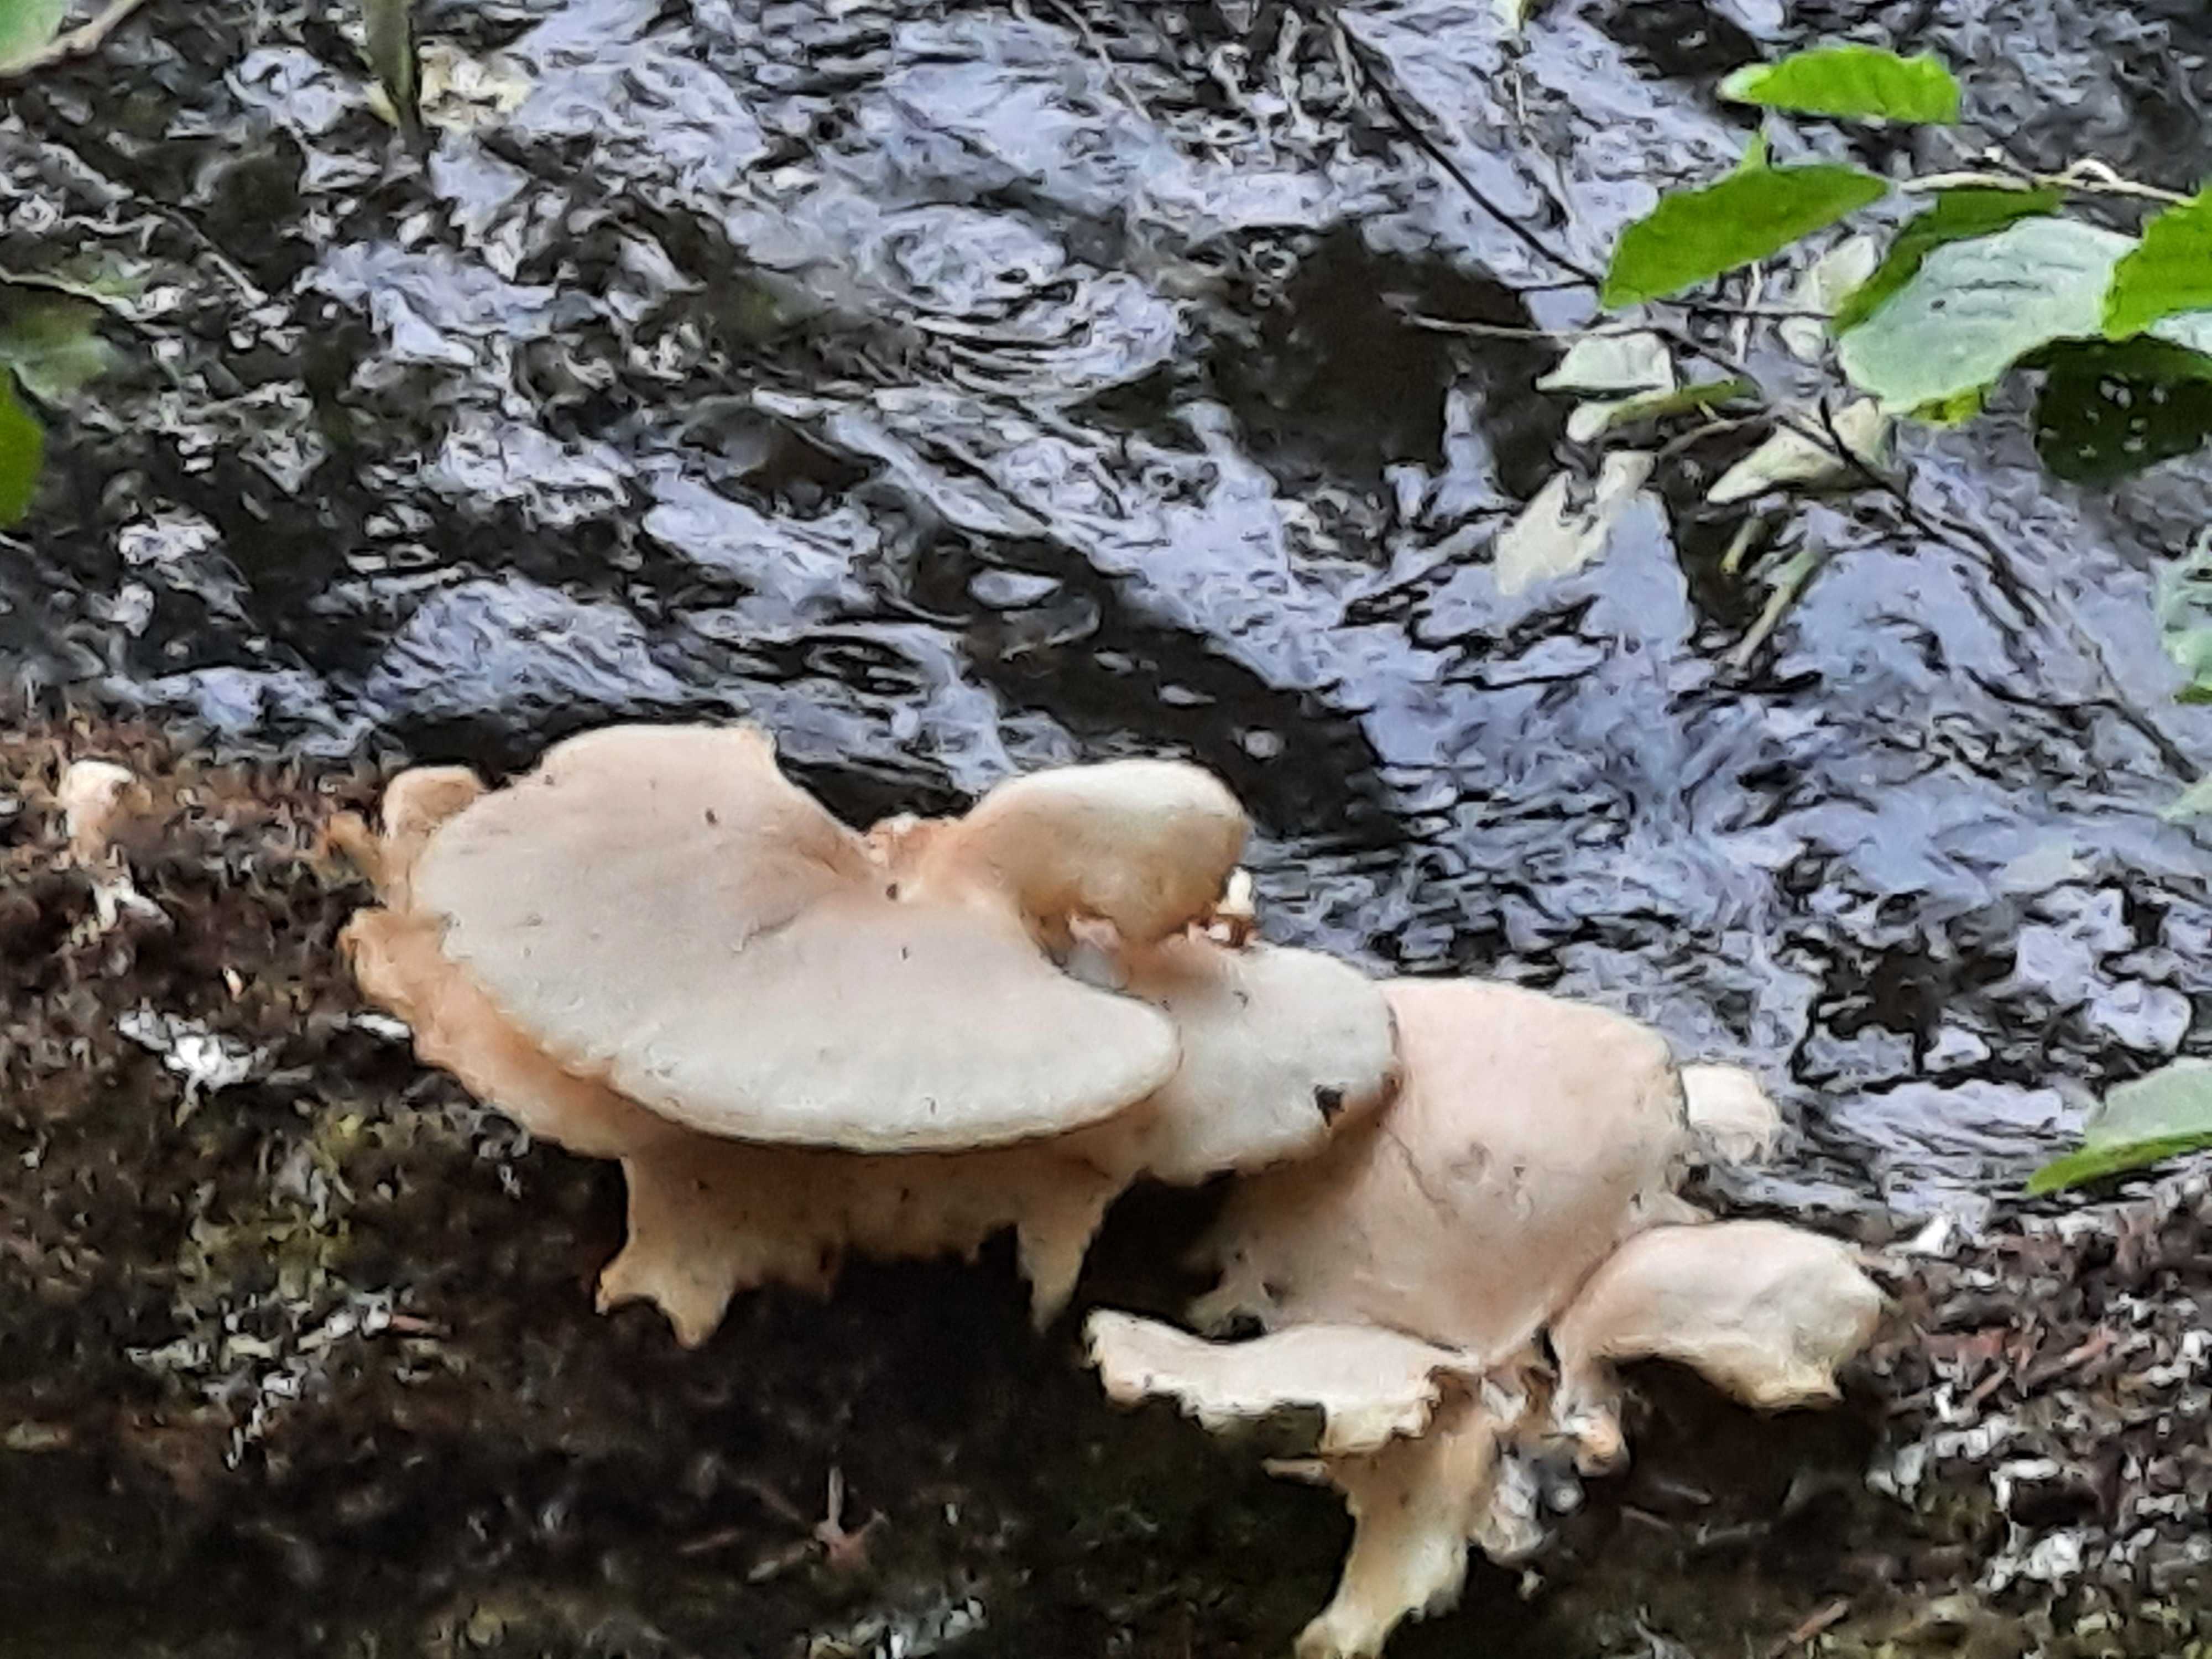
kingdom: Fungi
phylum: Basidiomycota
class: Agaricomycetes
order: Agaricales
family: Pleurotaceae
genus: Pleurotus
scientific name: Pleurotus pulmonarius
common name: sommer-østershat
